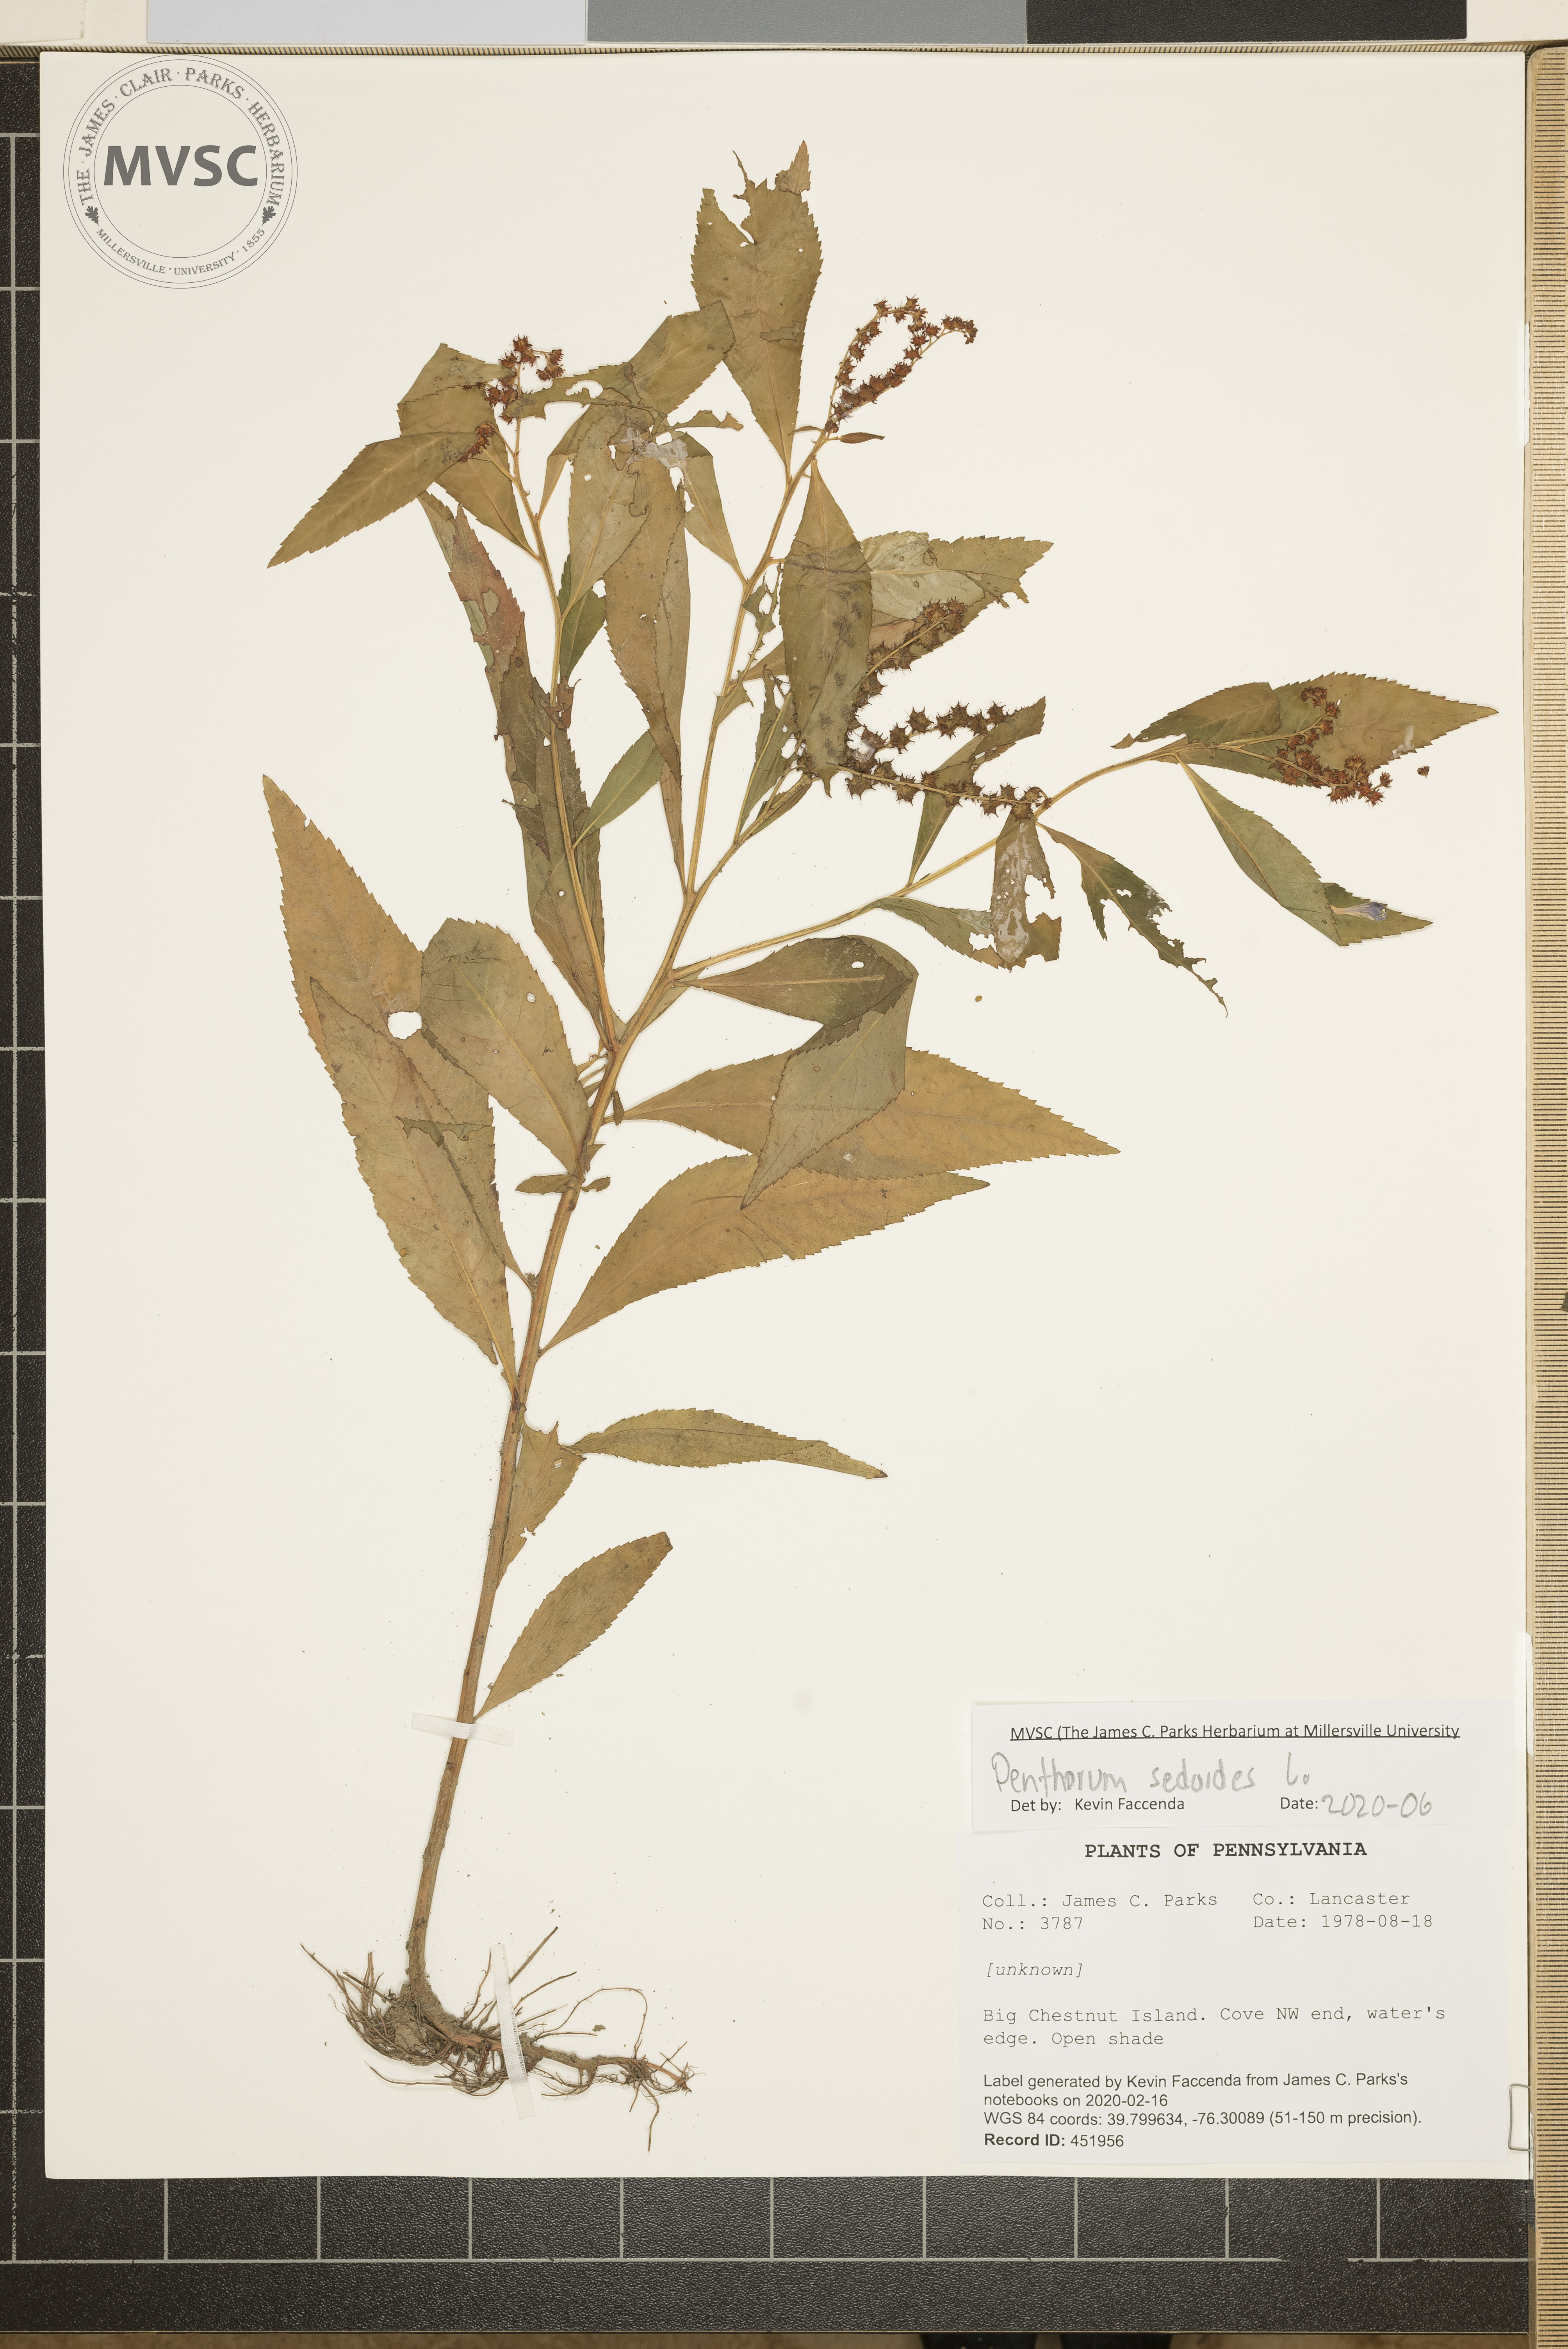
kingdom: Plantae
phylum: Tracheophyta
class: Magnoliopsida
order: Saxifragales
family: Penthoraceae
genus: Penthorum
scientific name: Penthorum sedoides
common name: Ditch stonecrop
